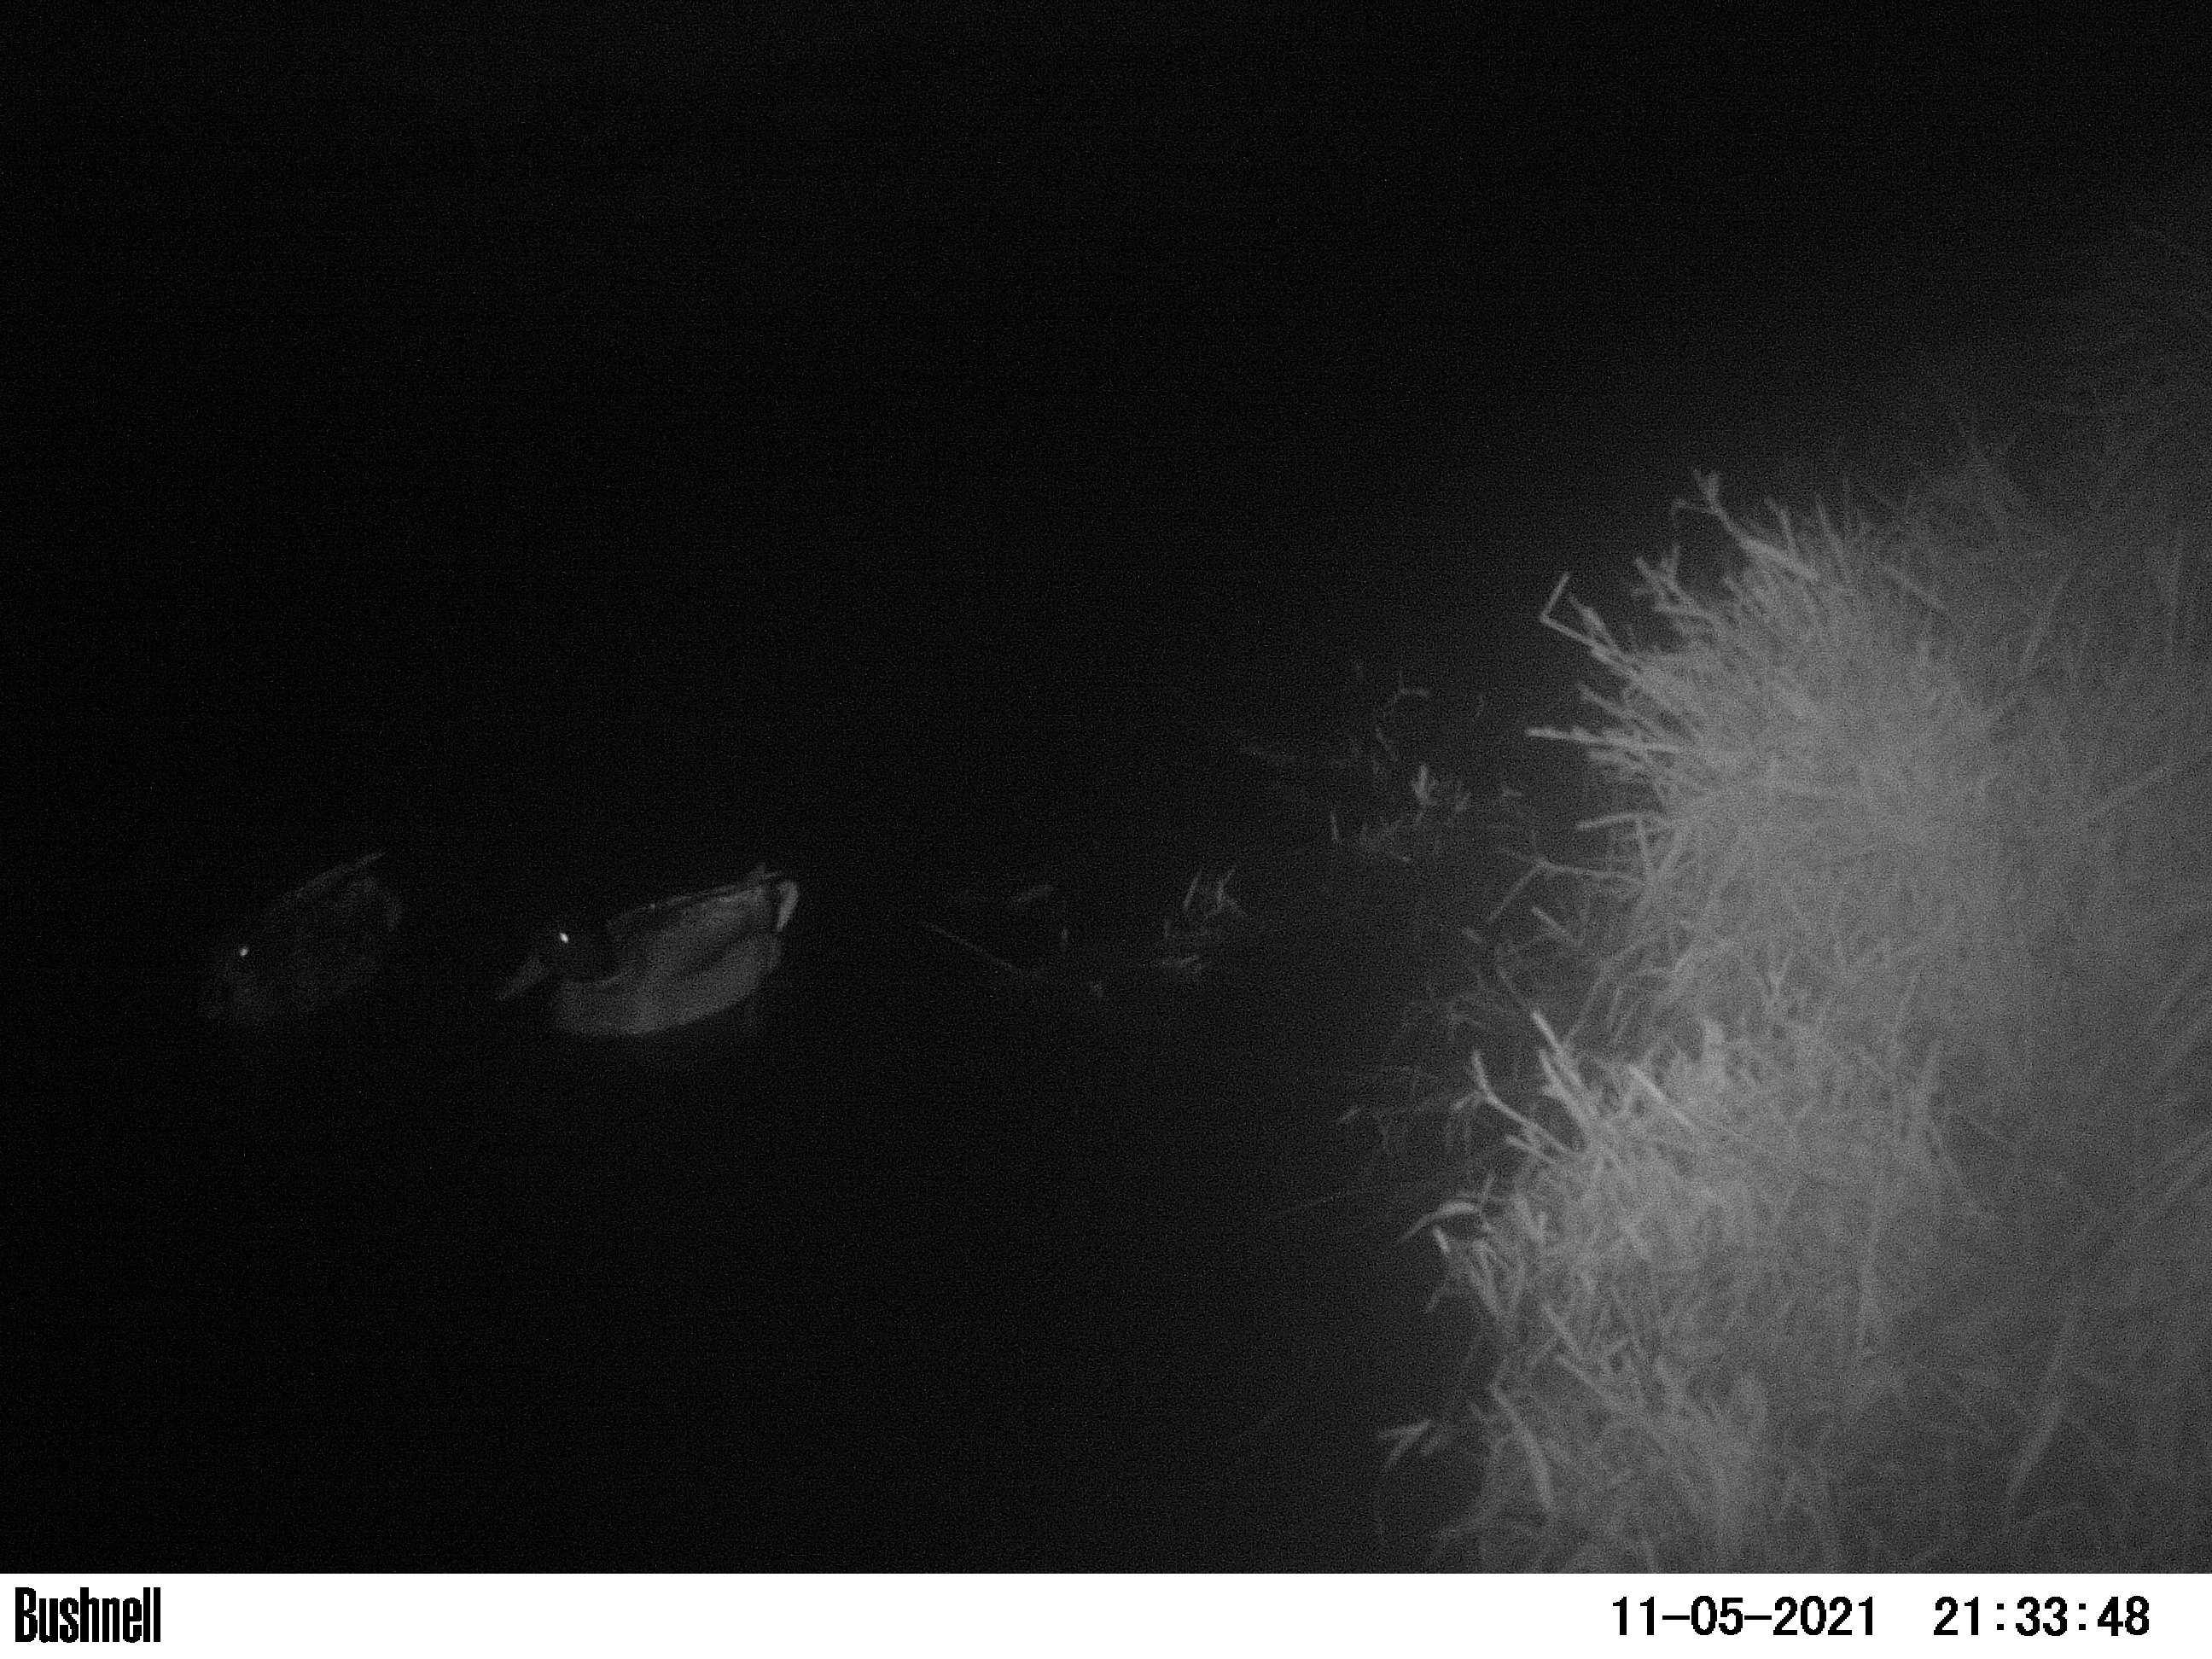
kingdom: Animalia
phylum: Chordata
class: Aves
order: Anseriformes
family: Anatidae
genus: Anas
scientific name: Anas
